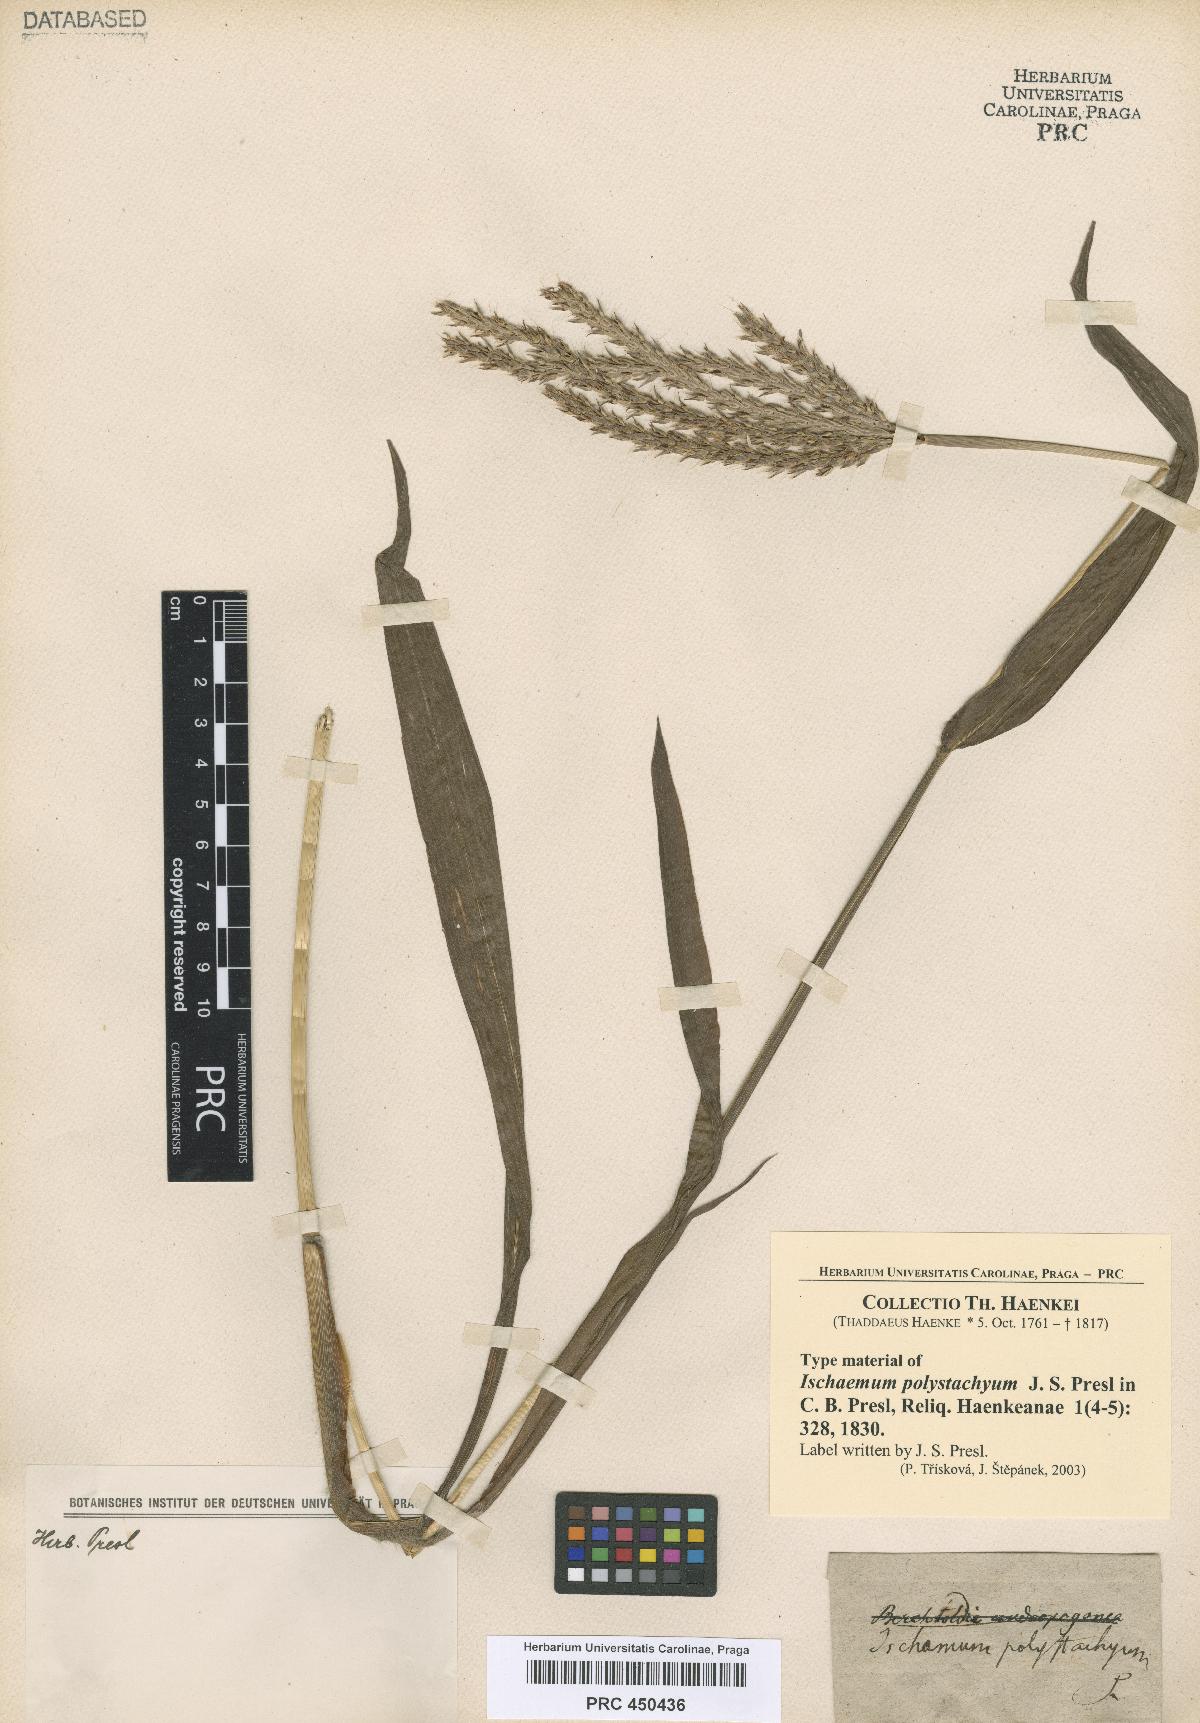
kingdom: Plantae
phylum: Tracheophyta
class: Liliopsida
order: Poales
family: Poaceae
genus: Ischaemum
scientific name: Ischaemum polystachyum
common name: Paddle grass
